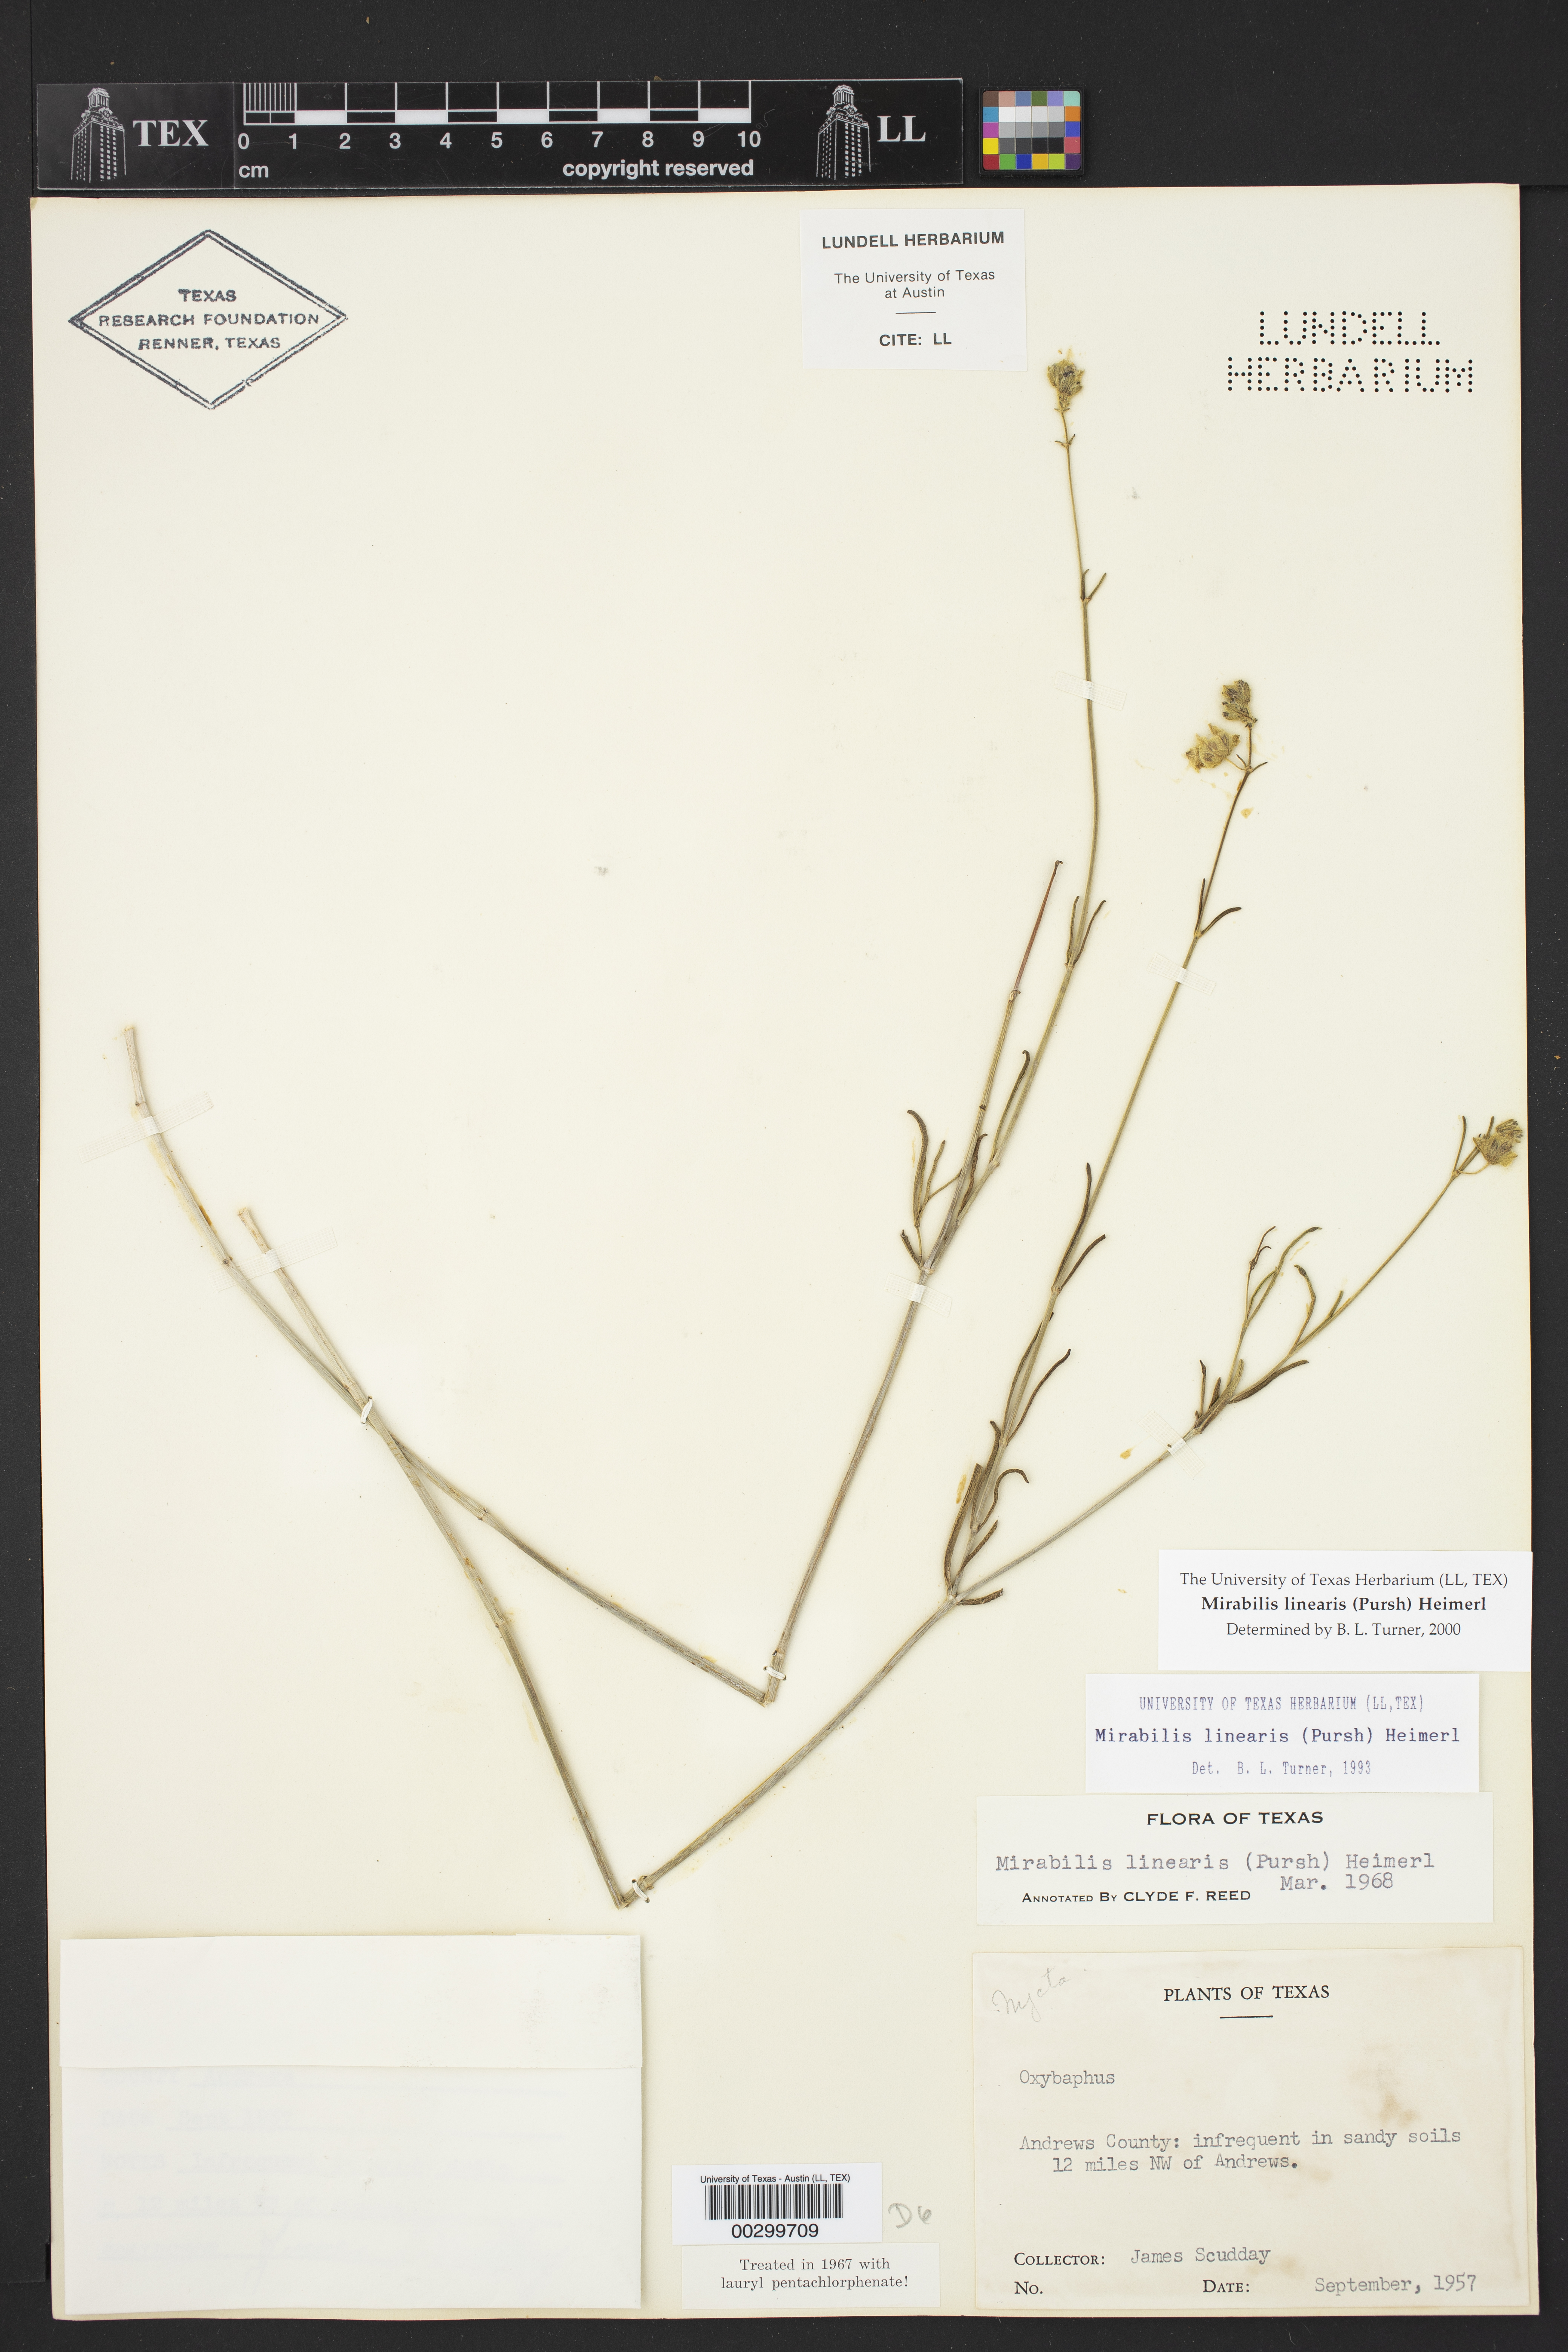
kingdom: Plantae
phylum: Tracheophyta
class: Magnoliopsida
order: Caryophyllales
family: Nyctaginaceae
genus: Mirabilis
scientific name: Mirabilis linearis
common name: Linear-leaved four-o'clock
